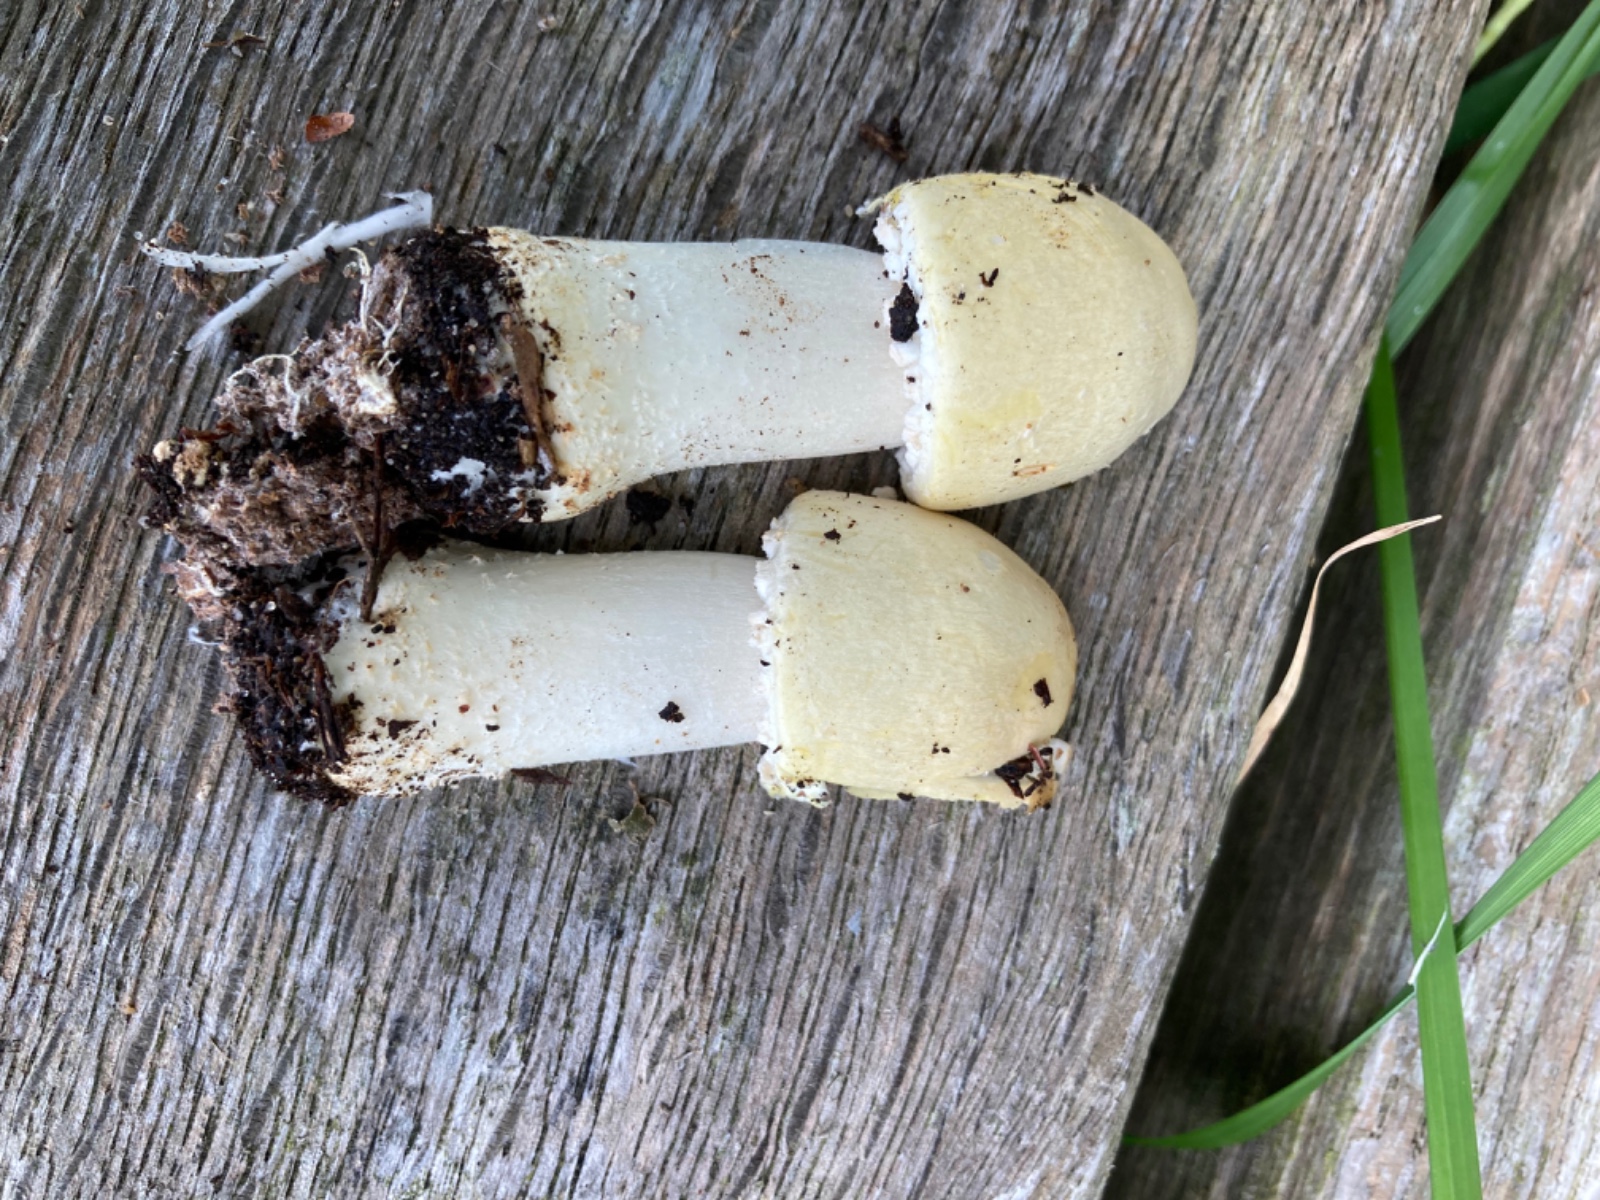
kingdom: Fungi
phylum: Basidiomycota
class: Agaricomycetes
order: Agaricales
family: Agaricaceae
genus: Agaricus
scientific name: Agaricus sylvicola
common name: gulhvid champignon
